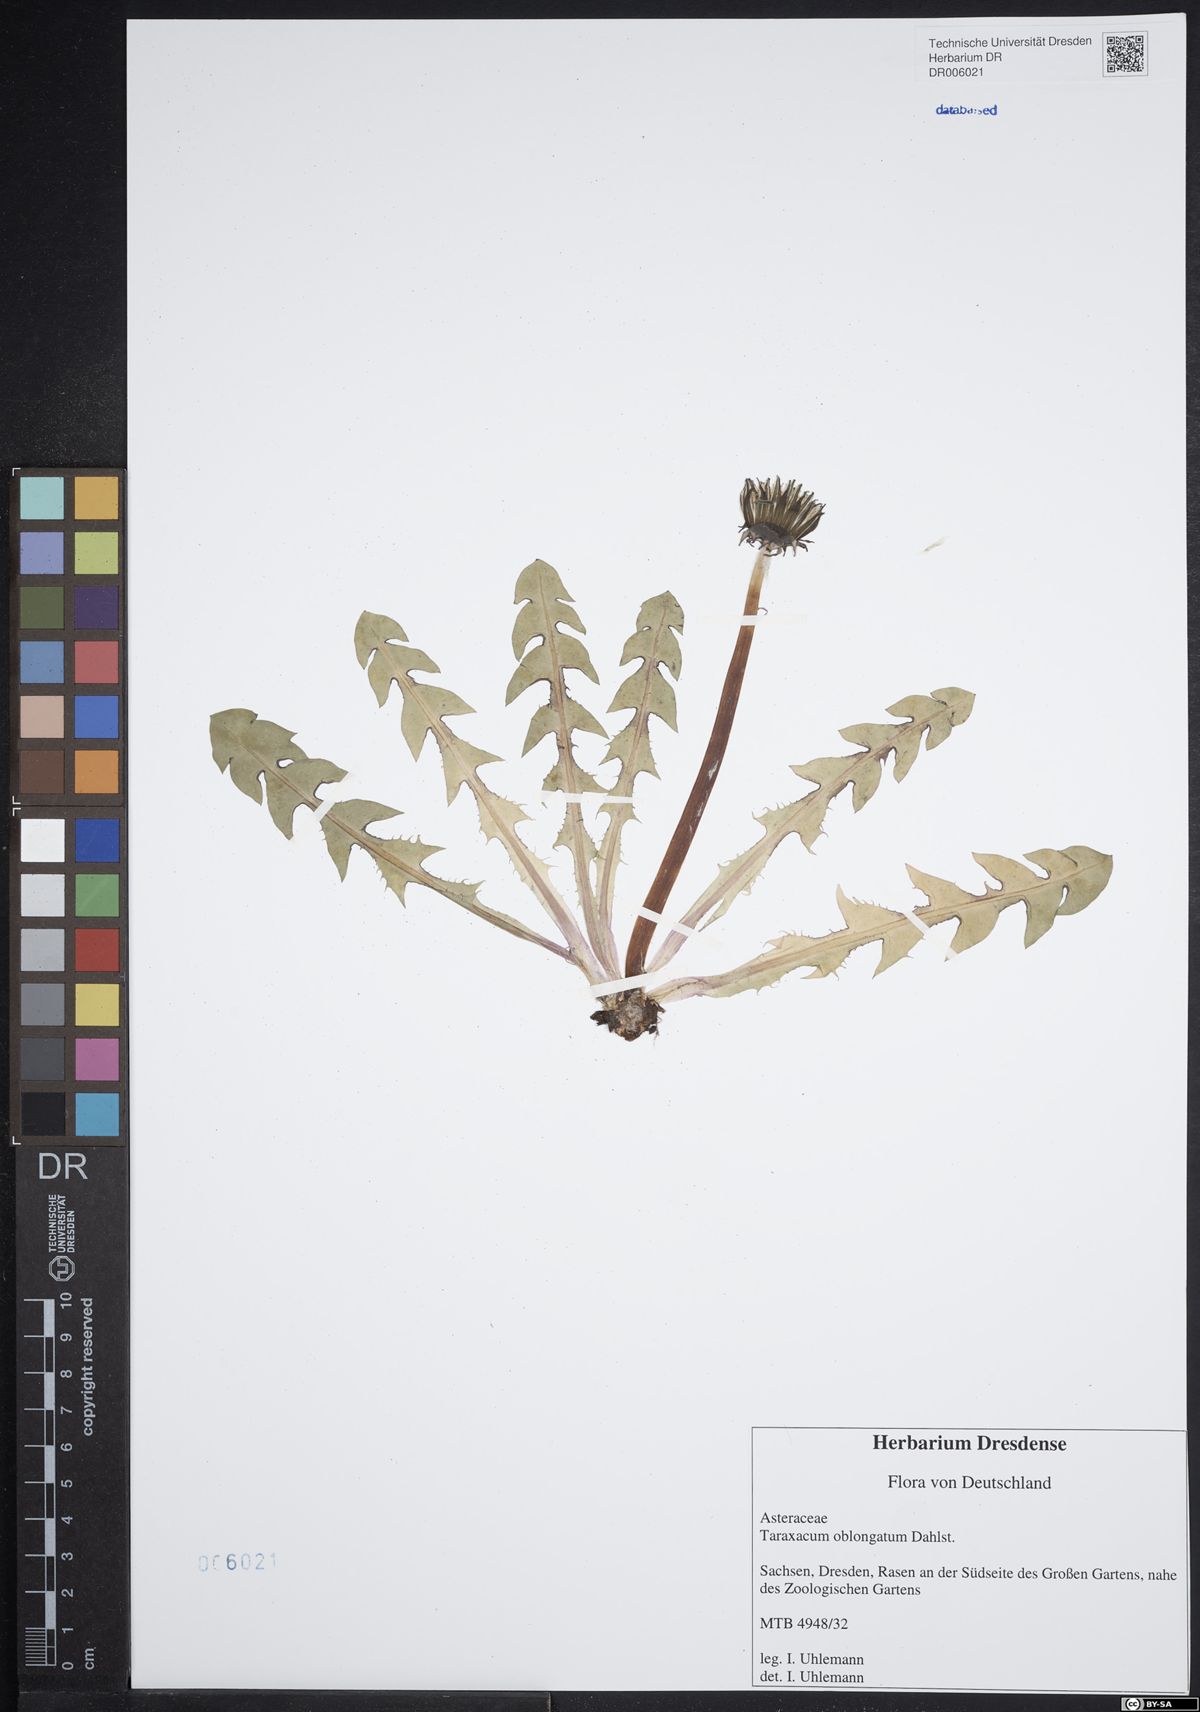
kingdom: Plantae
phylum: Tracheophyta
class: Magnoliopsida
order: Asterales
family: Asteraceae
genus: Taraxacum
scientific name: Taraxacum oblongatum
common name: Oblong-leaved dandelion
